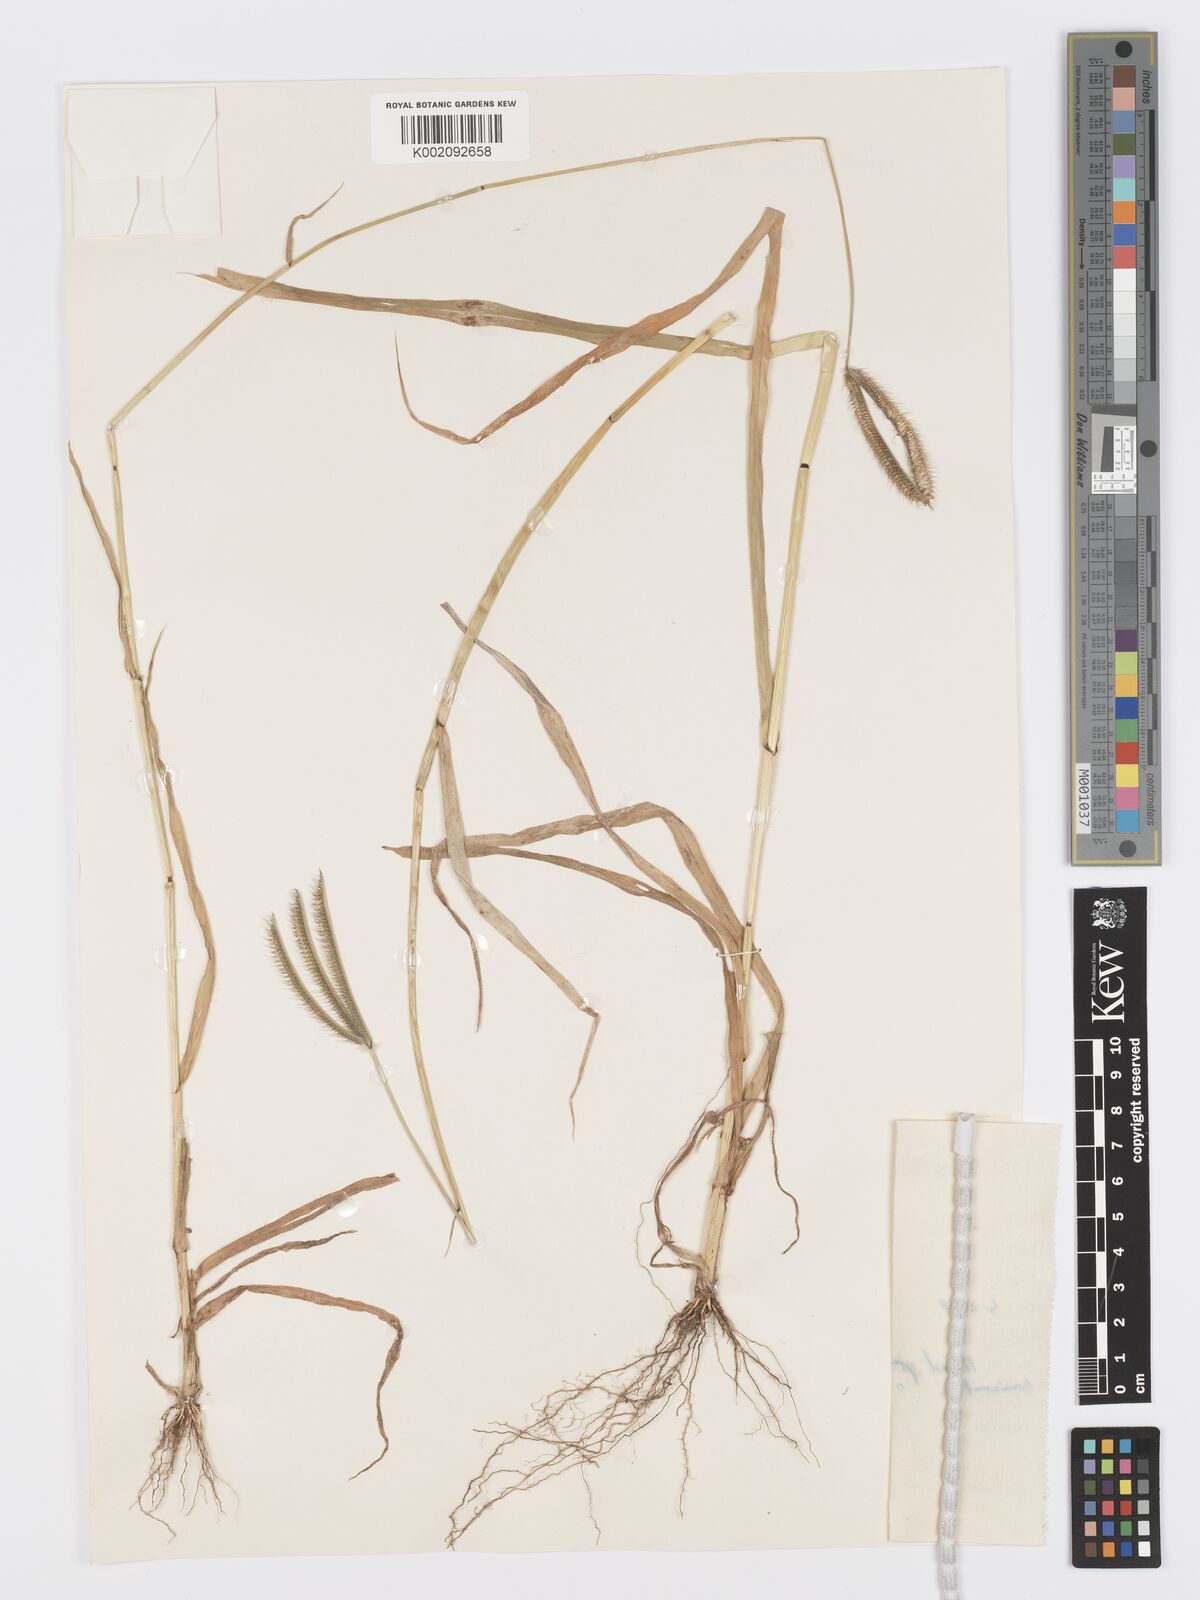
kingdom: Plantae
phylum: Tracheophyta
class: Liliopsida
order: Poales
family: Poaceae
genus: Dactyloctenium
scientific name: Dactyloctenium giganteum
